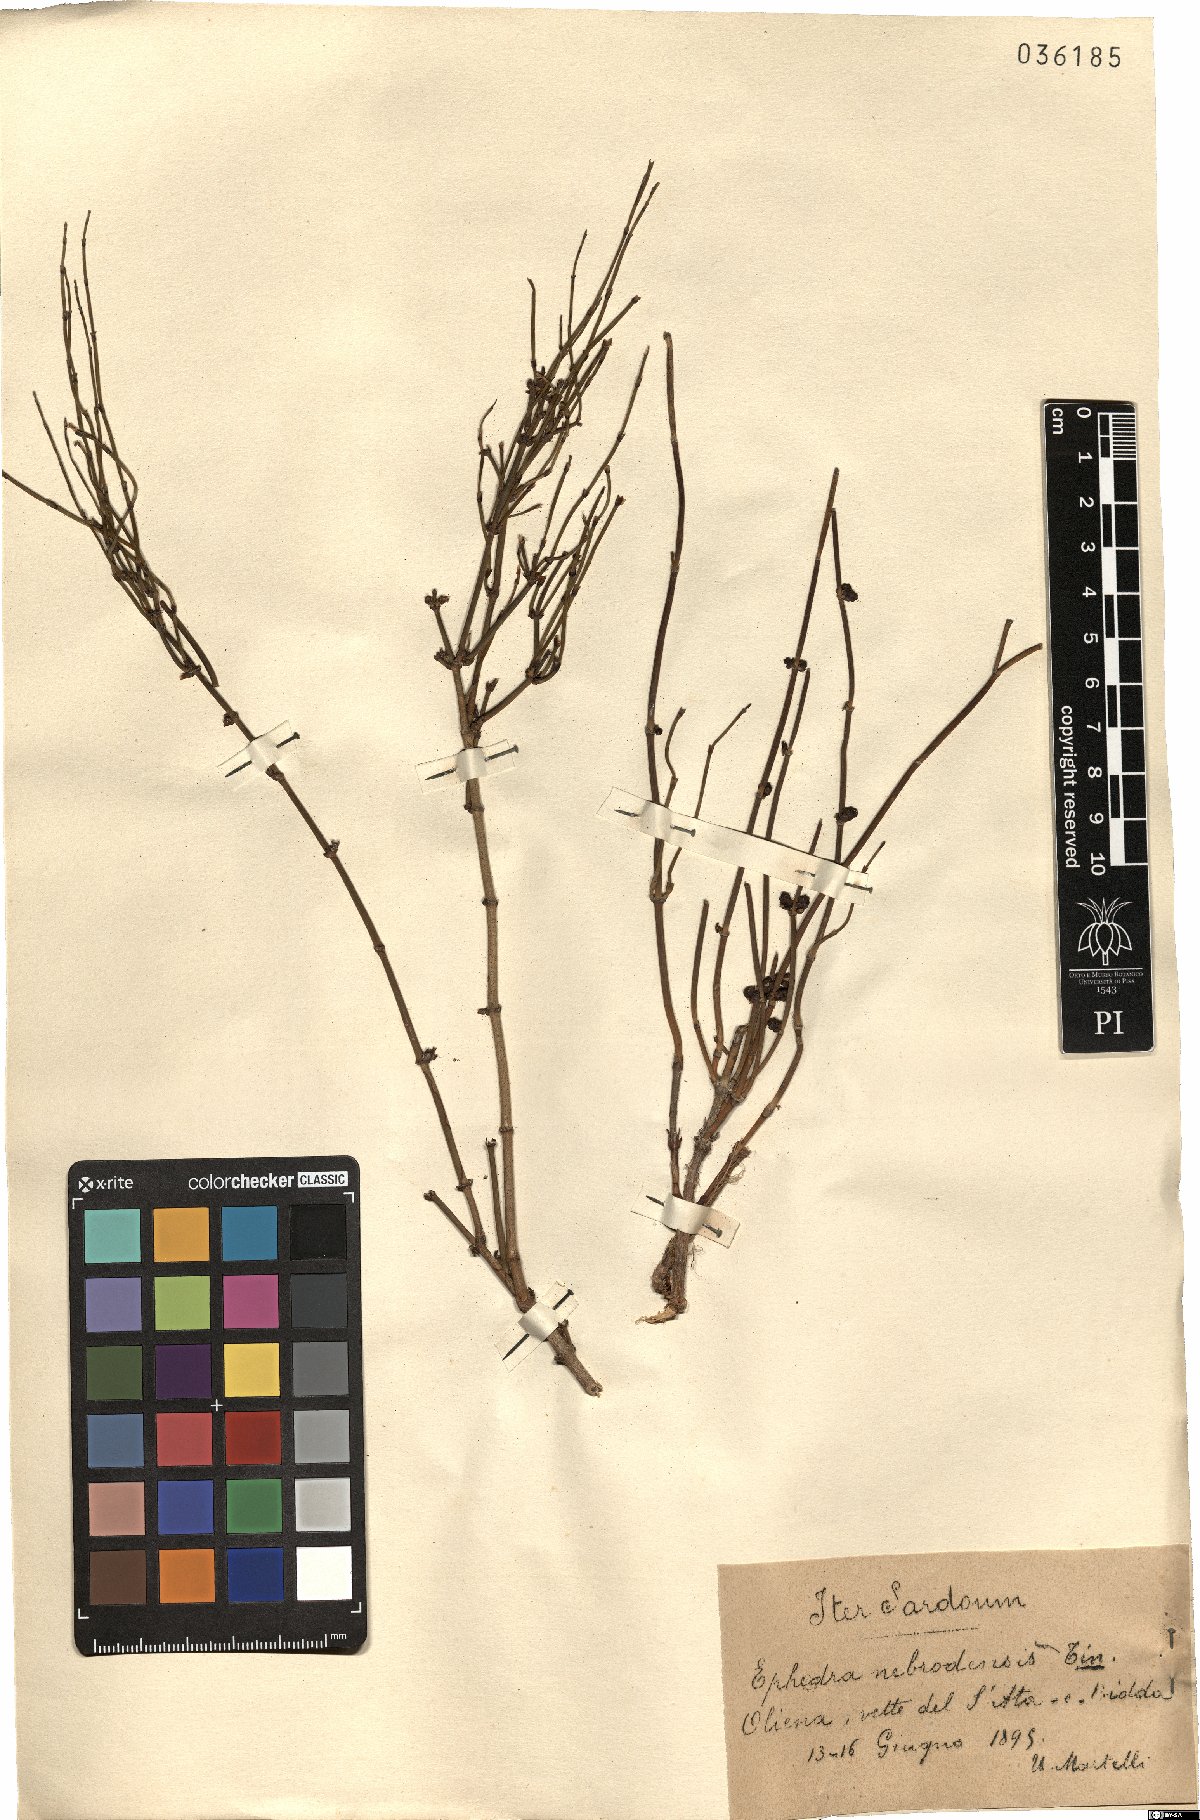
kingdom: Plantae
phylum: Tracheophyta
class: Gnetopsida
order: Ephedrales
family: Ephedraceae
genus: Ephedra
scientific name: Ephedra foeminea
